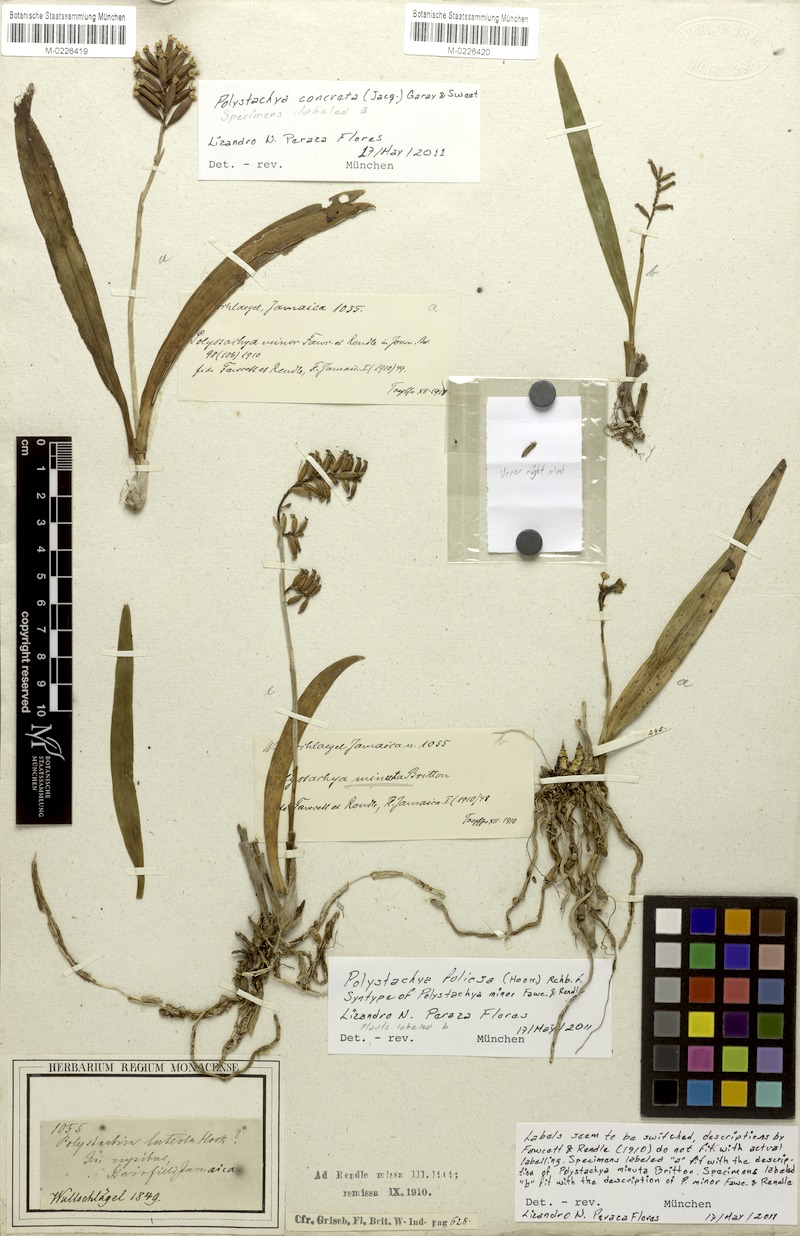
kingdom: Plantae
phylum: Tracheophyta
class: Liliopsida
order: Asparagales
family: Orchidaceae
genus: Polystachya
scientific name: Polystachya foliosa
